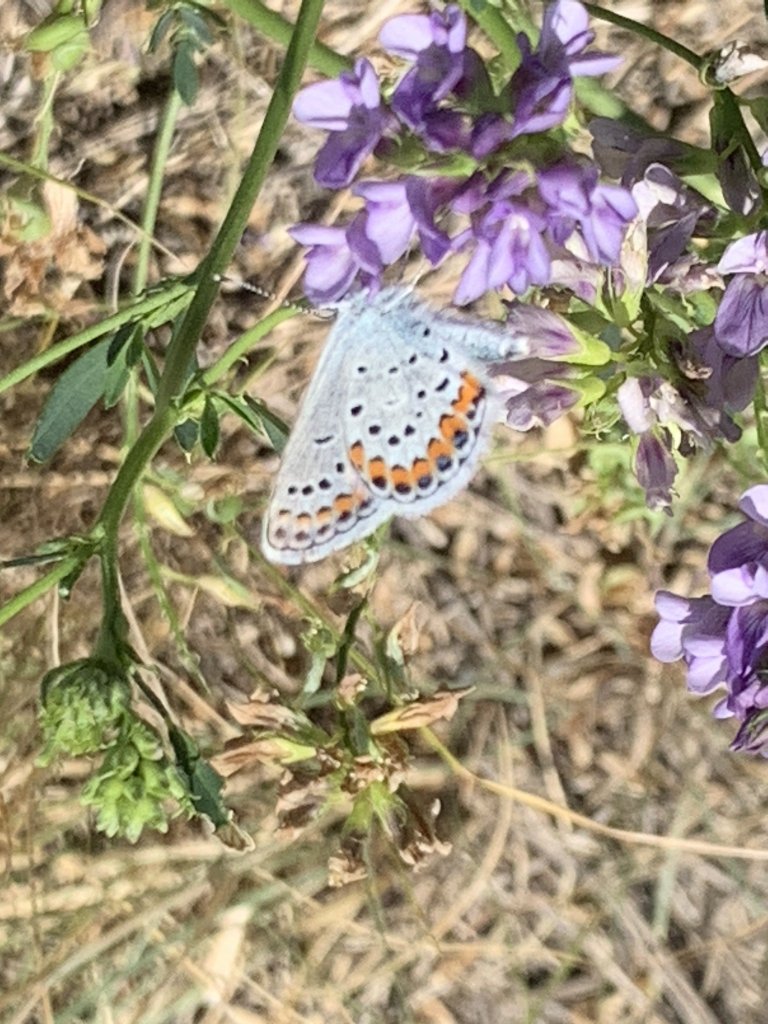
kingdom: Animalia
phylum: Arthropoda
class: Insecta
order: Lepidoptera
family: Lycaenidae
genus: Lycaeides
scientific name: Lycaeides melissa
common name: Melissa Blue
